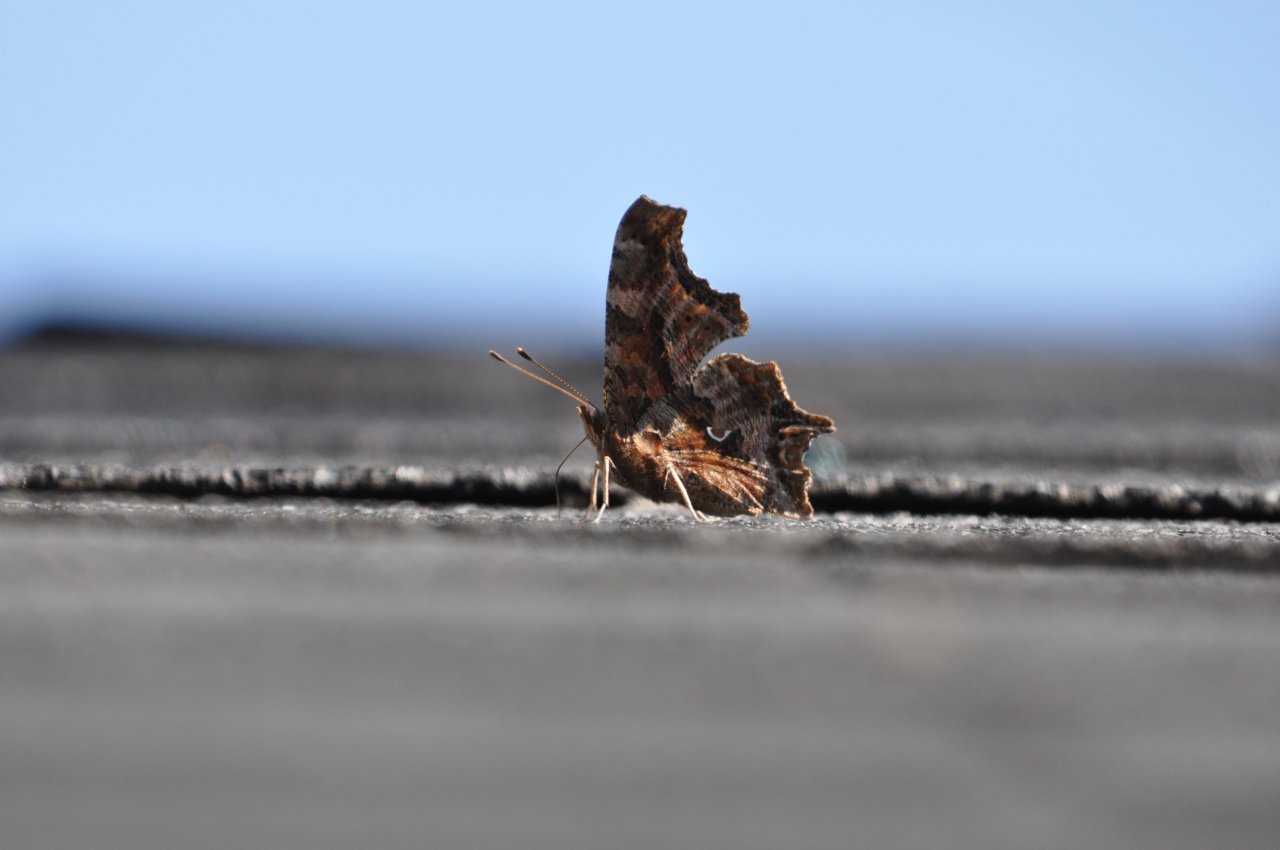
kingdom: Animalia
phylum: Arthropoda
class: Insecta
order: Lepidoptera
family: Nymphalidae
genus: Polygonia
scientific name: Polygonia comma
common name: Eastern Comma
